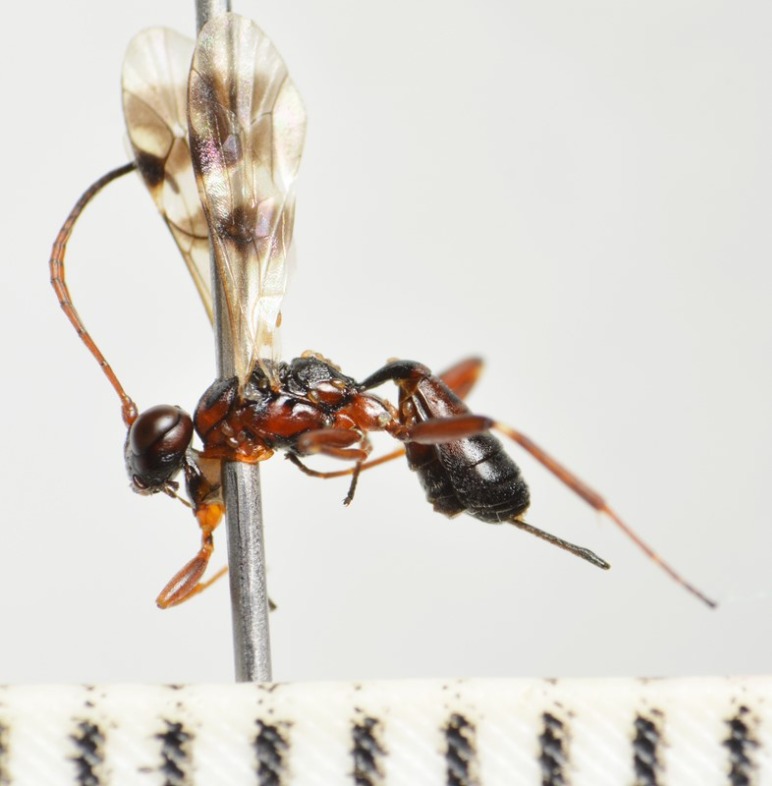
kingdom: Animalia
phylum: Arthropoda
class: Insecta
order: Hymenoptera
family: Ichneumonidae
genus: Gelis
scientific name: Gelis areator
